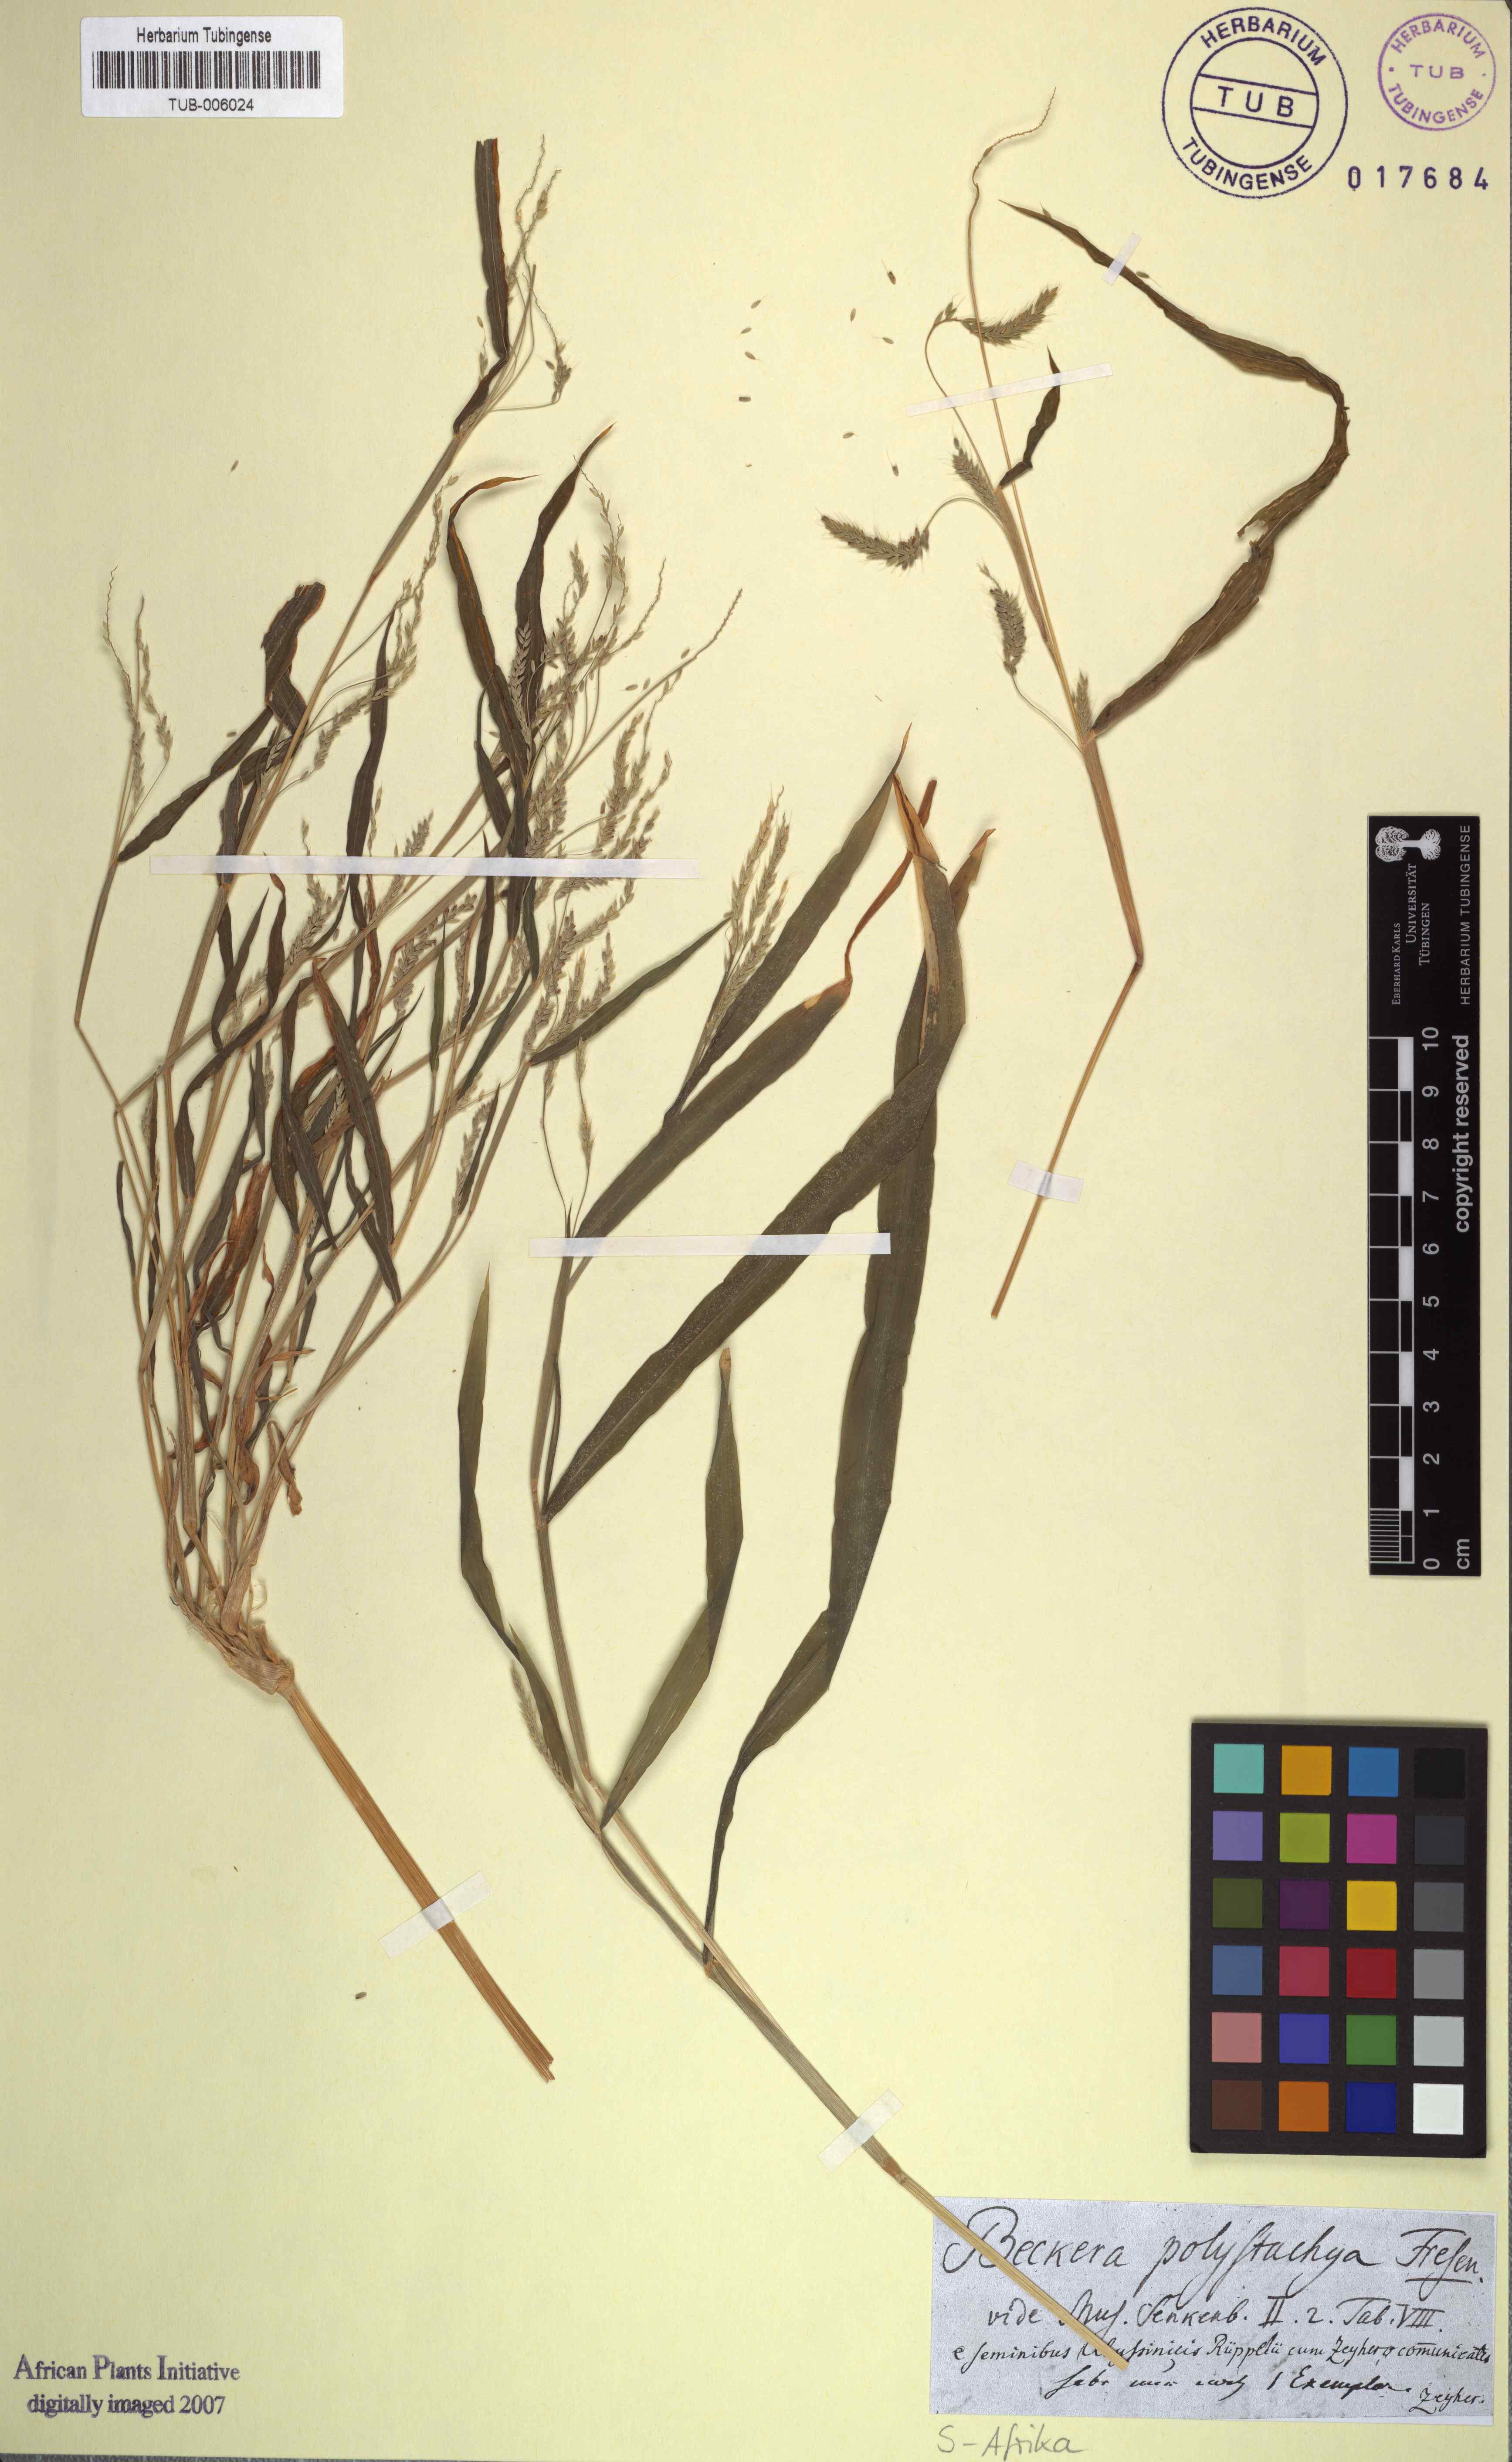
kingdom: Plantae
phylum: Tracheophyta
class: Liliopsida
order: Poales
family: Poaceae
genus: Snowdenia
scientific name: Snowdenia polystachya
